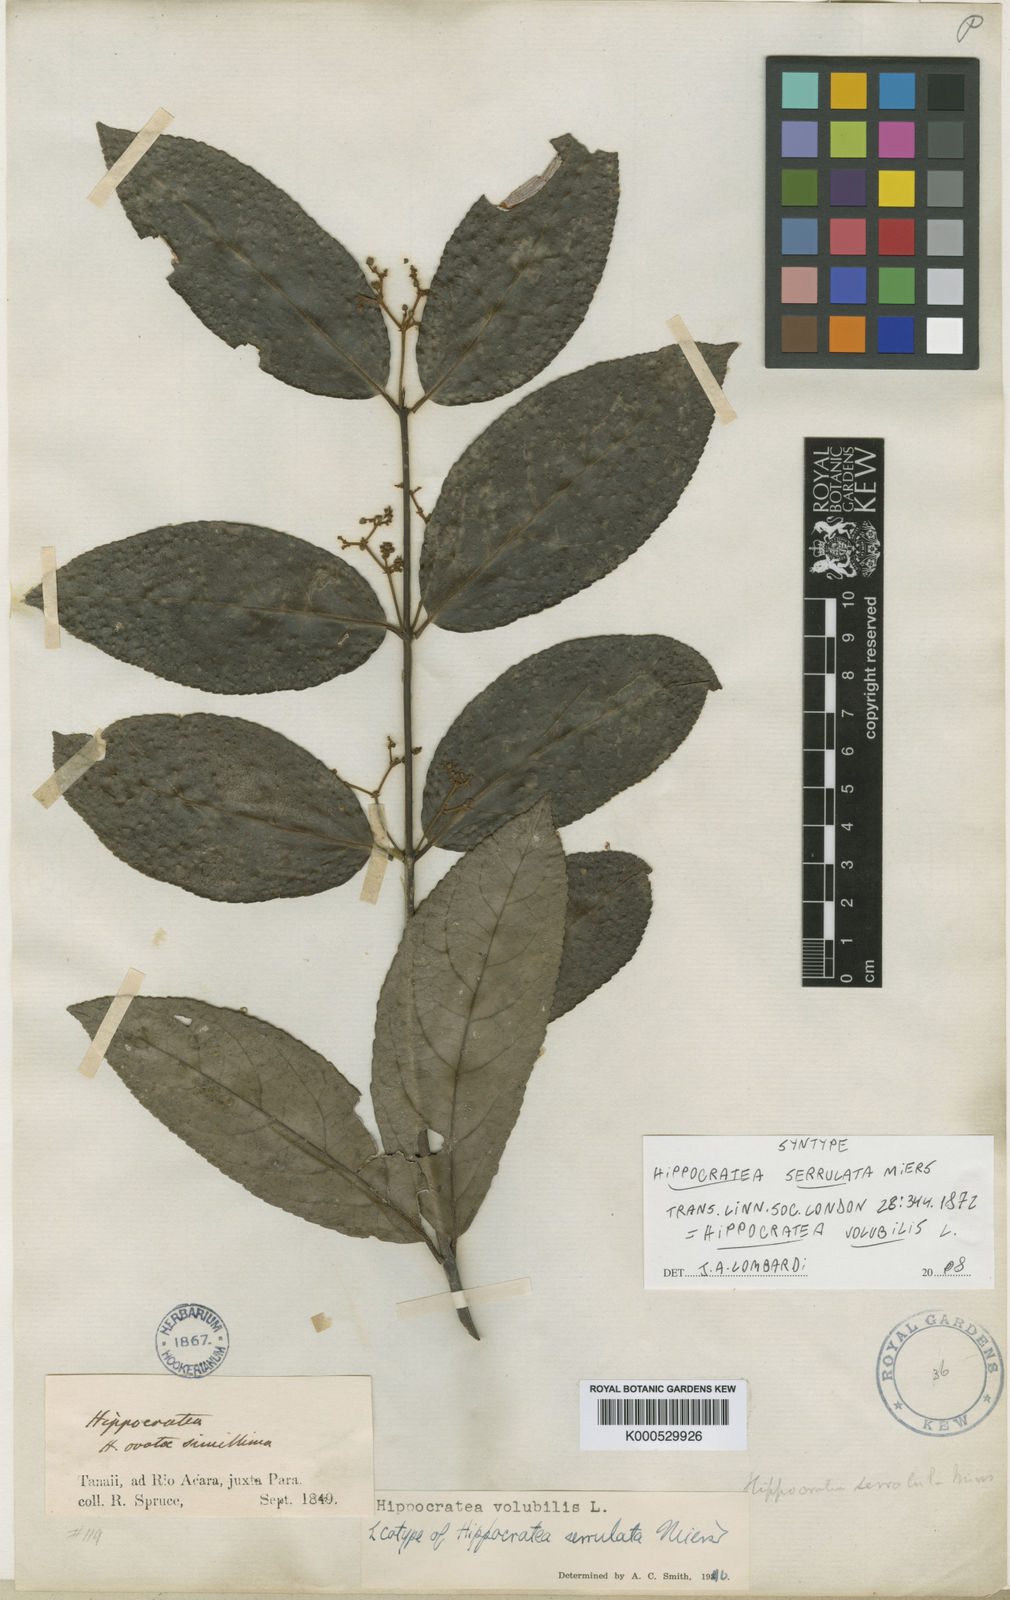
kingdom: Plantae
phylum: Tracheophyta
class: Magnoliopsida
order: Celastrales
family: Celastraceae
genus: Hippocratea
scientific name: Hippocratea volubilis
